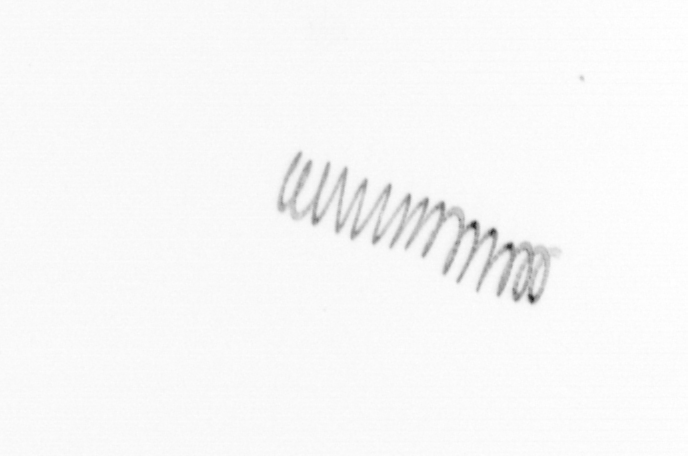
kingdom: Chromista
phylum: Ochrophyta
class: Bacillariophyceae
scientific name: Bacillariophyceae
